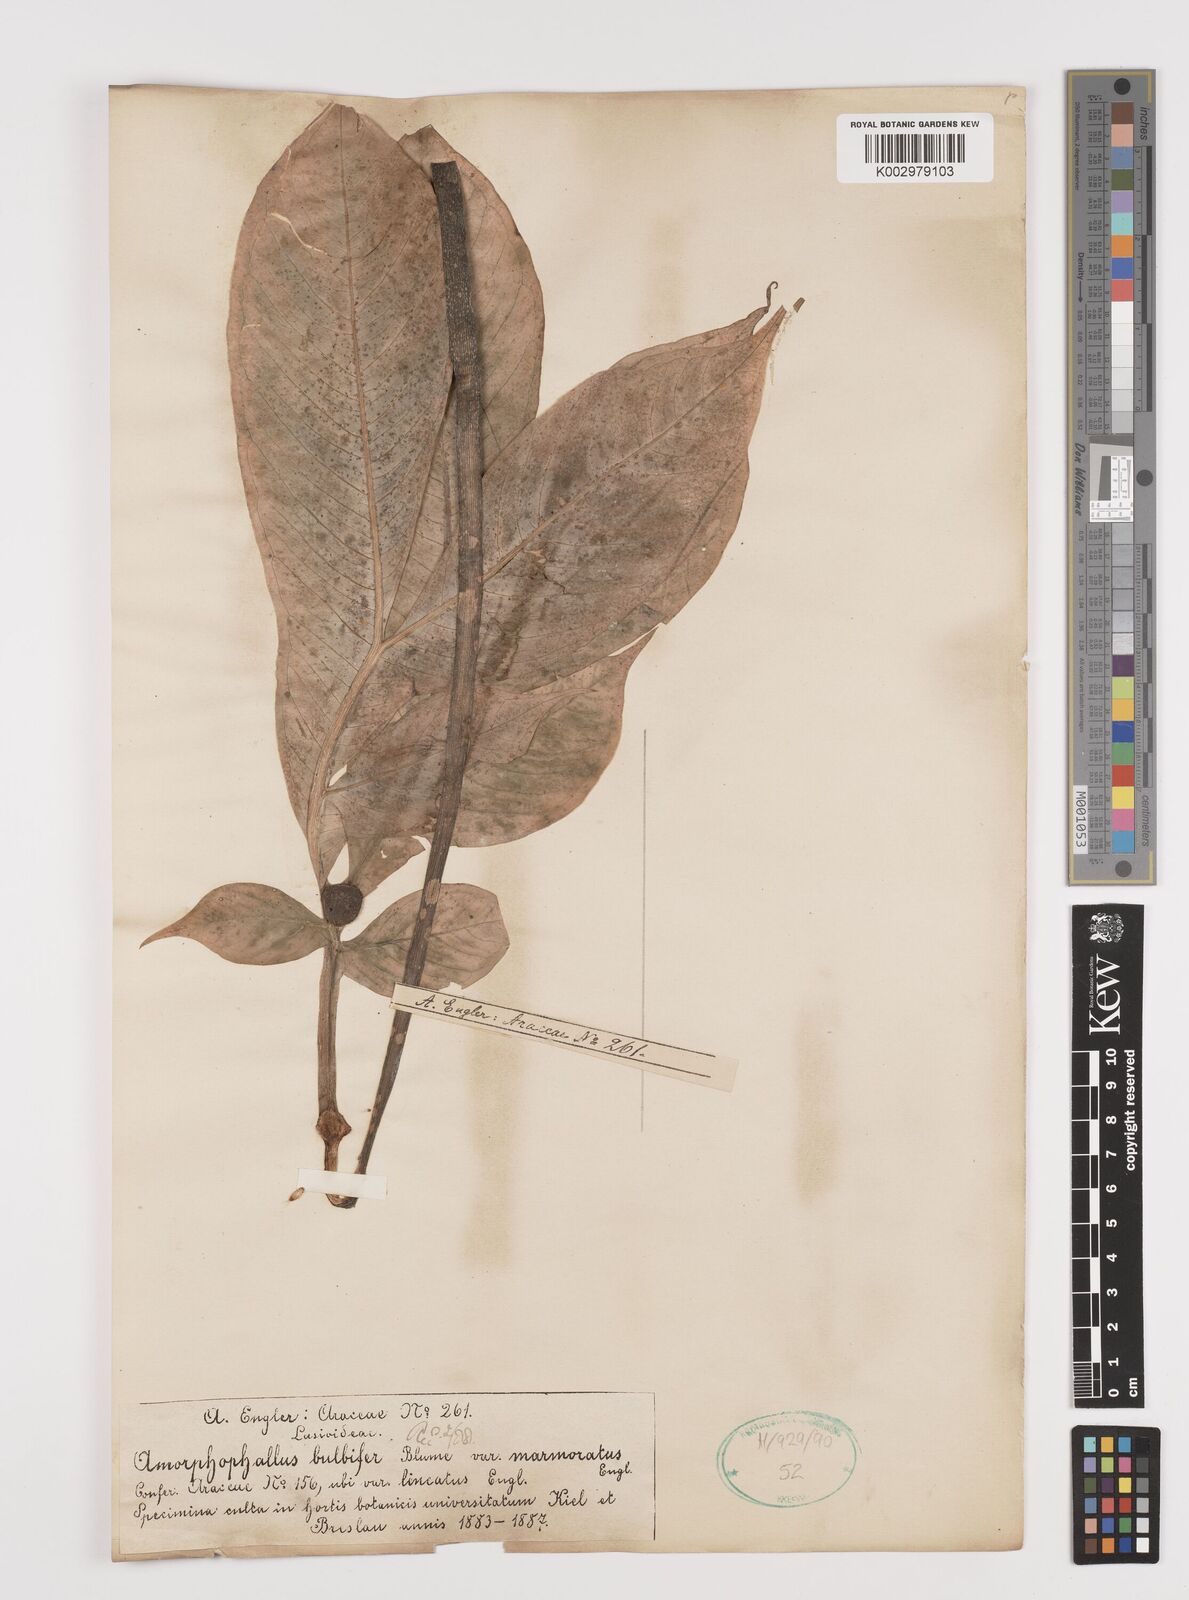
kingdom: Plantae
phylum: Tracheophyta
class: Liliopsida
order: Alismatales
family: Araceae
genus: Amorphophallus
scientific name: Amorphophallus bulbifer
